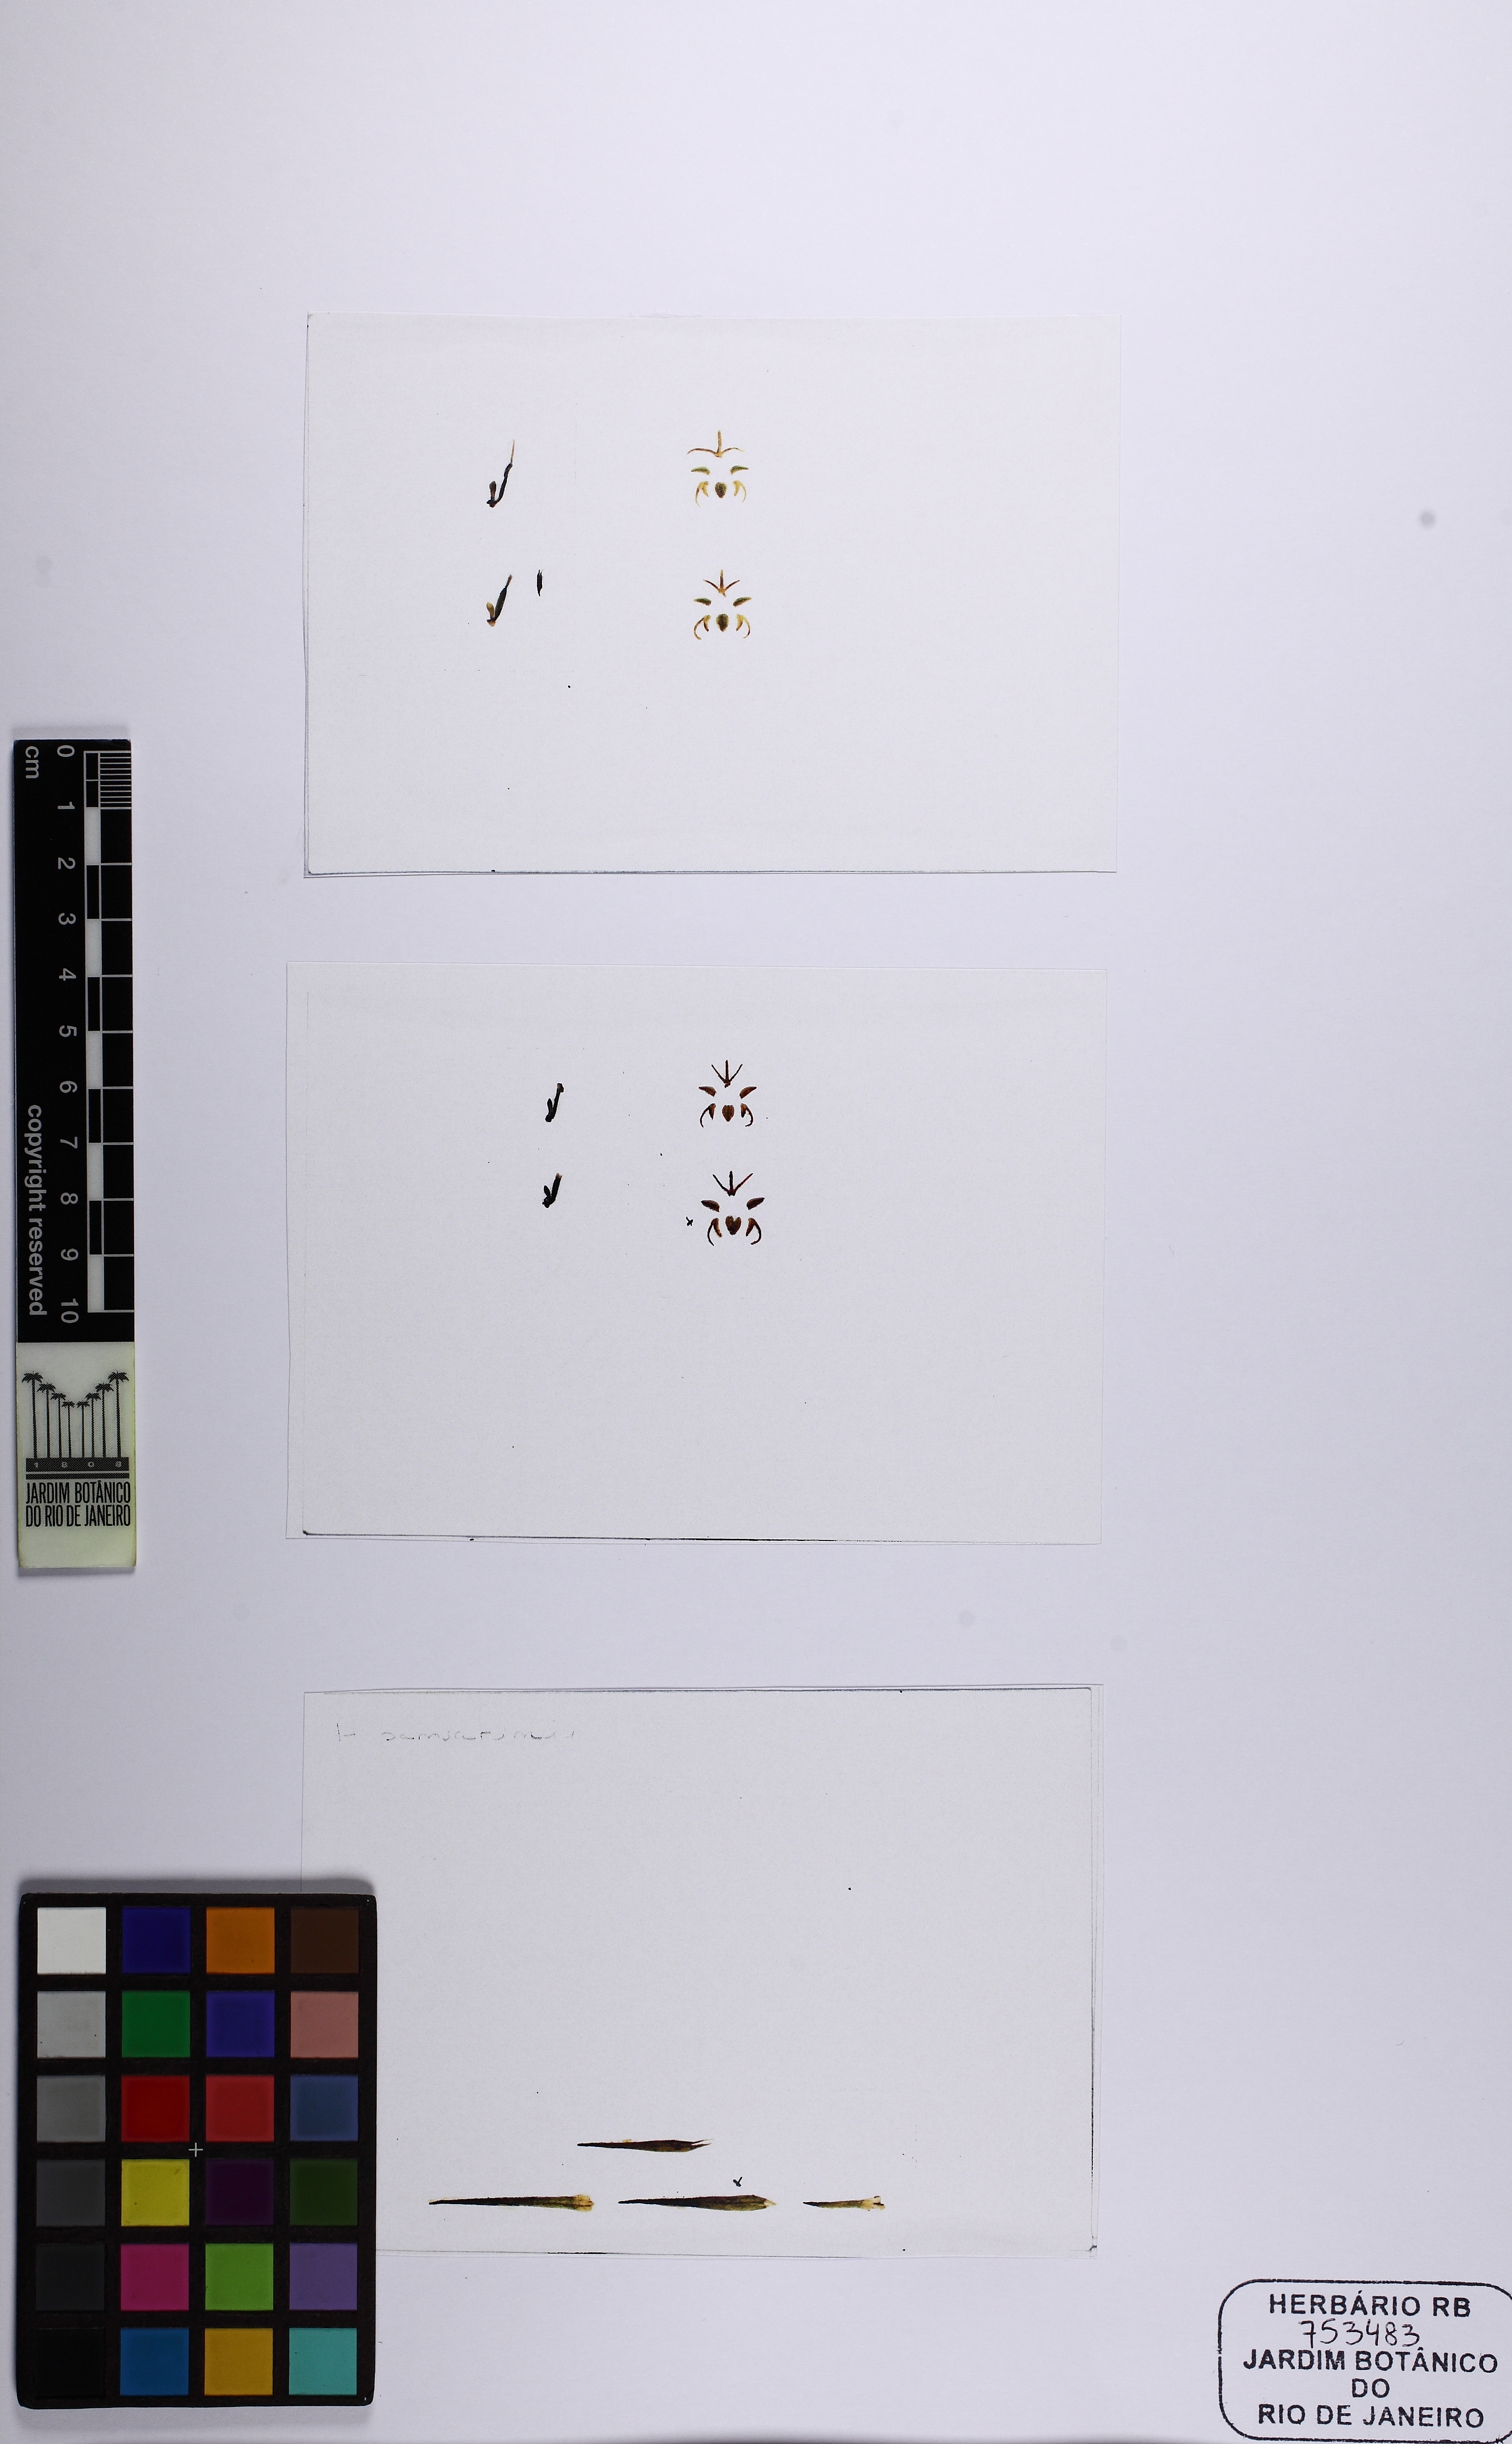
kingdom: Plantae
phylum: Tracheophyta
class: Liliopsida
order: Asparagales
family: Orchidaceae
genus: Habenaria
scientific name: Habenaria pansarinii
